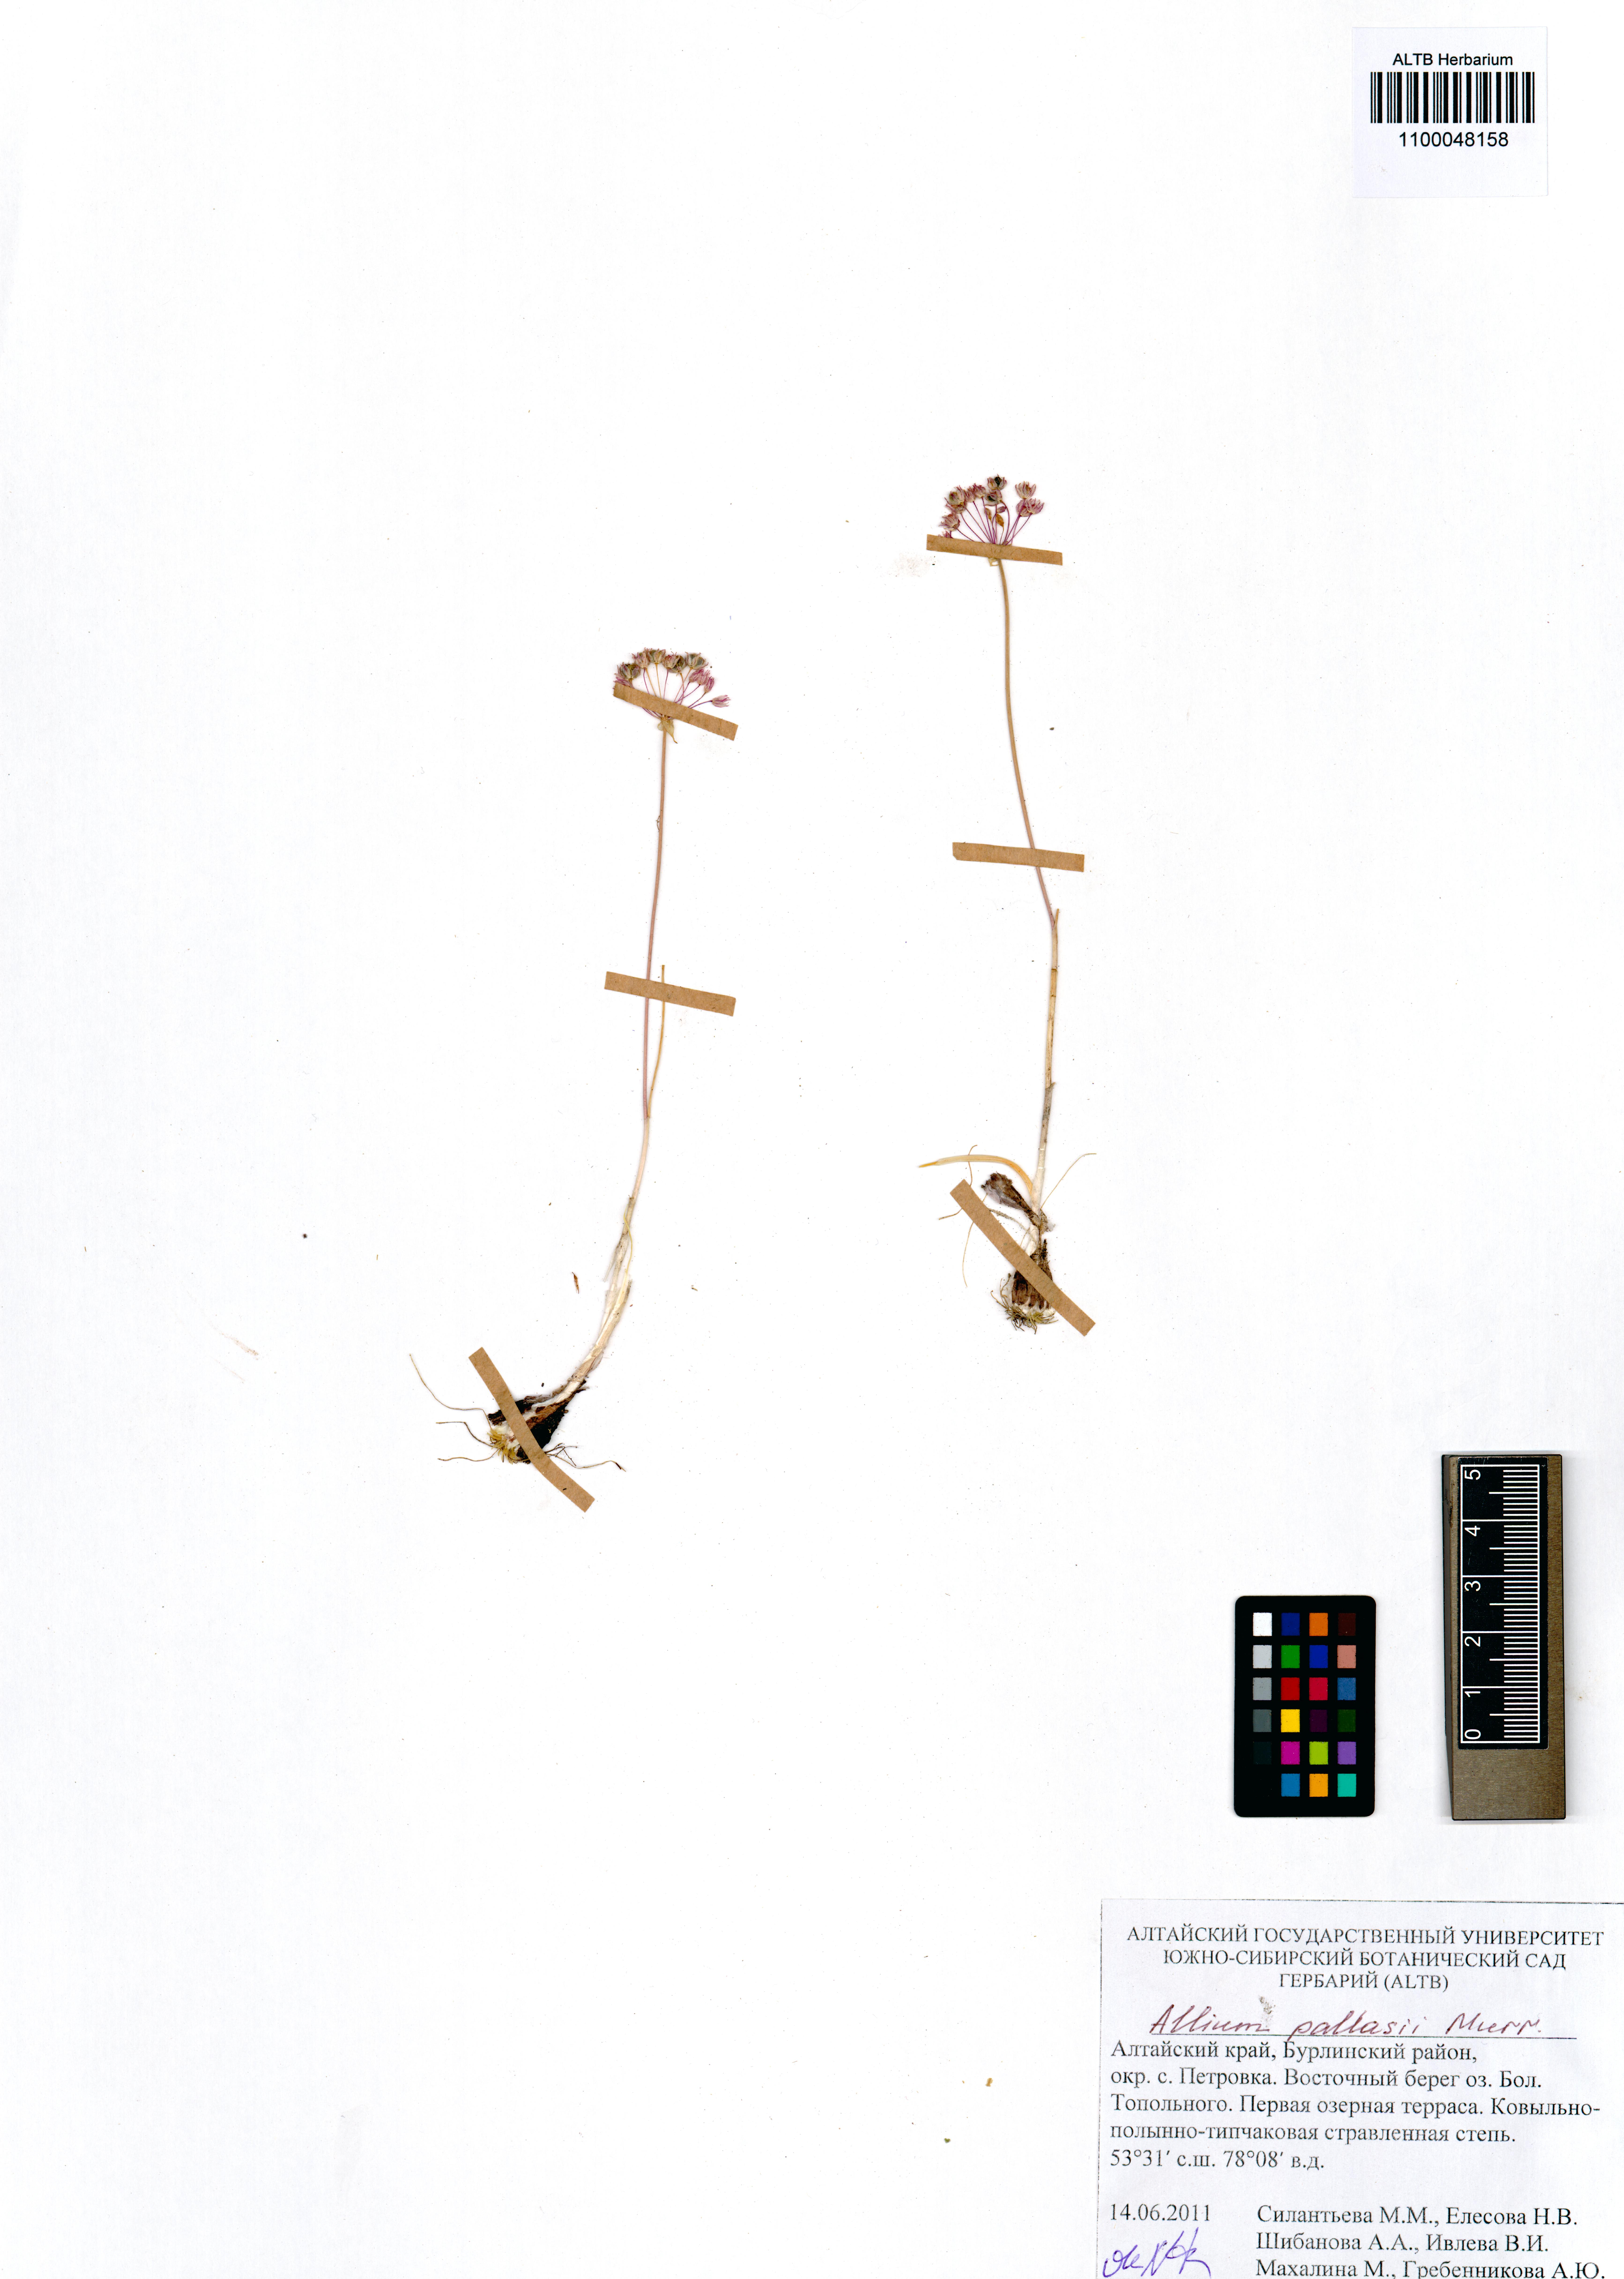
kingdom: Plantae
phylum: Tracheophyta
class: Liliopsida
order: Asparagales
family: Amaryllidaceae
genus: Allium
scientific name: Allium pallasii
